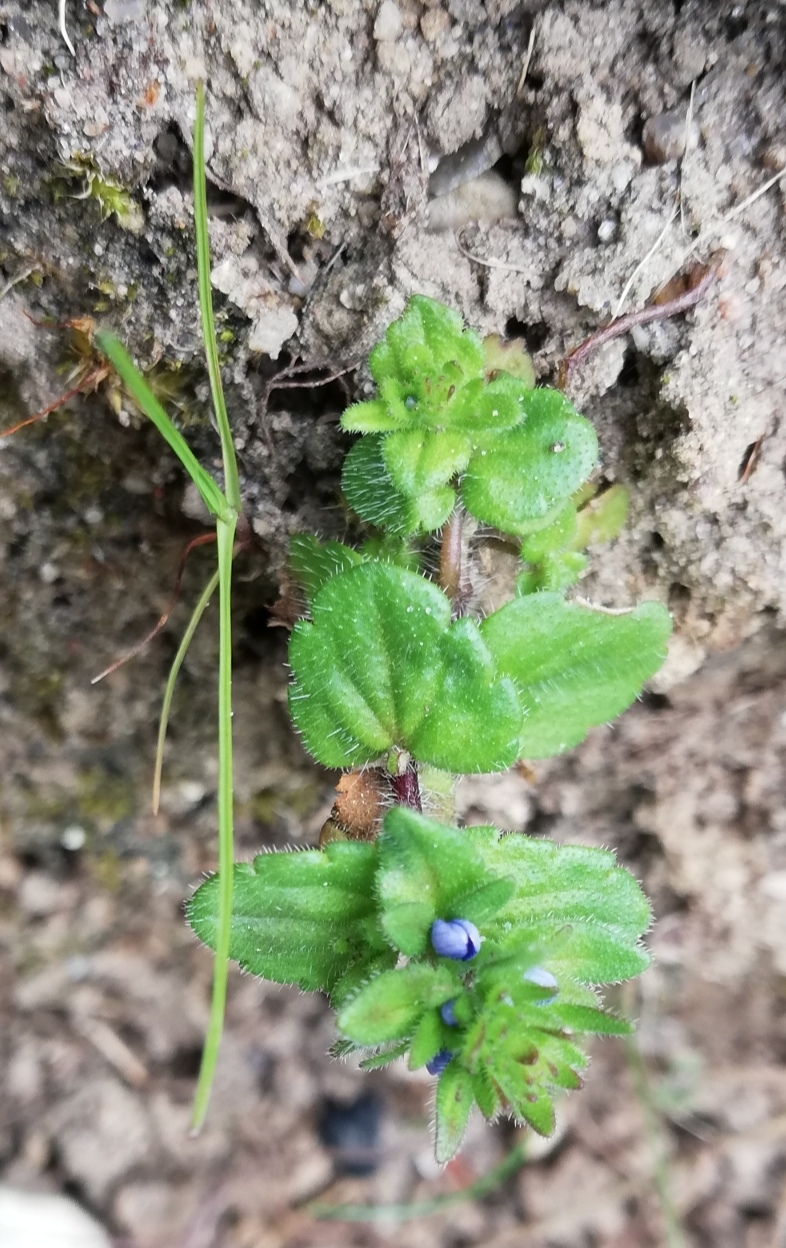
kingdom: Plantae
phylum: Tracheophyta
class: Magnoliopsida
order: Lamiales
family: Plantaginaceae
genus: Veronica
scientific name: Veronica arvensis
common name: Mark-ærenpris
